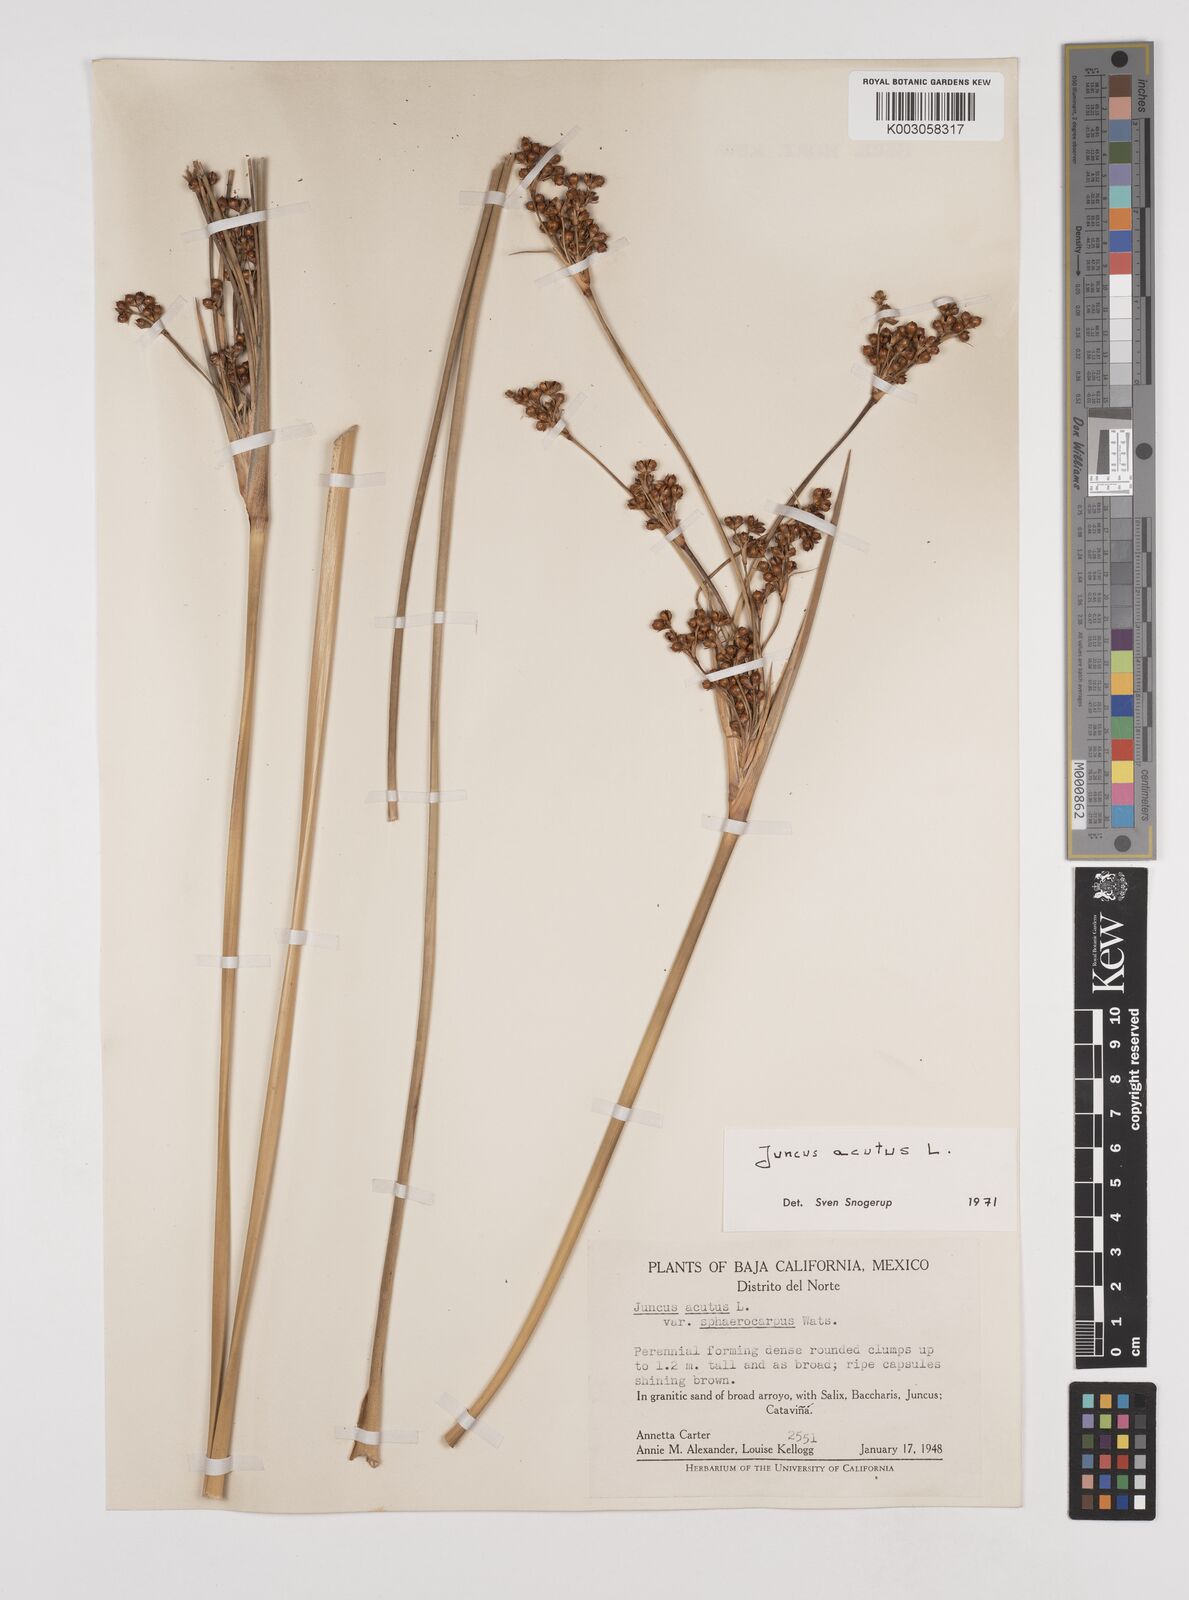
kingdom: Plantae
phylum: Tracheophyta
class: Liliopsida
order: Poales
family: Juncaceae
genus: Juncus
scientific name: Juncus acutus
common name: Sharp rush
